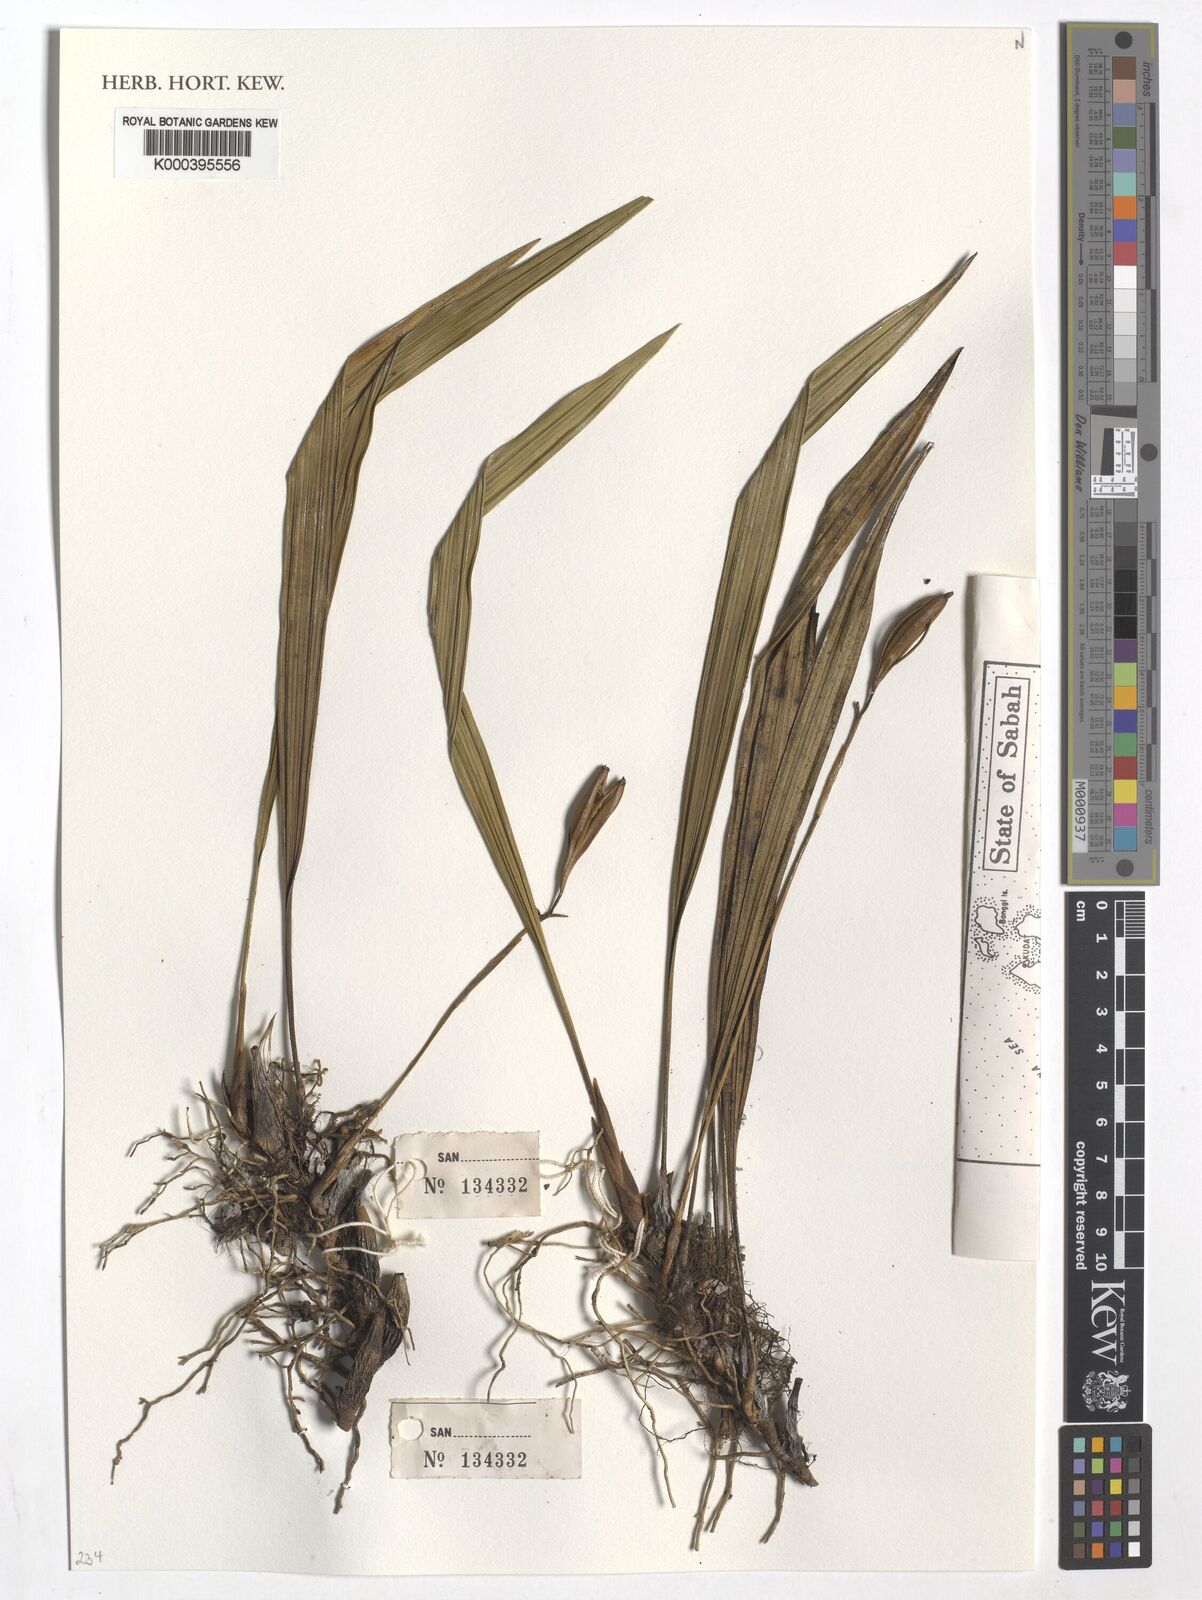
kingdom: Plantae
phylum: Tracheophyta
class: Liliopsida
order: Asparagales
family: Orchidaceae
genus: Coelogyne
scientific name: Coelogyne
